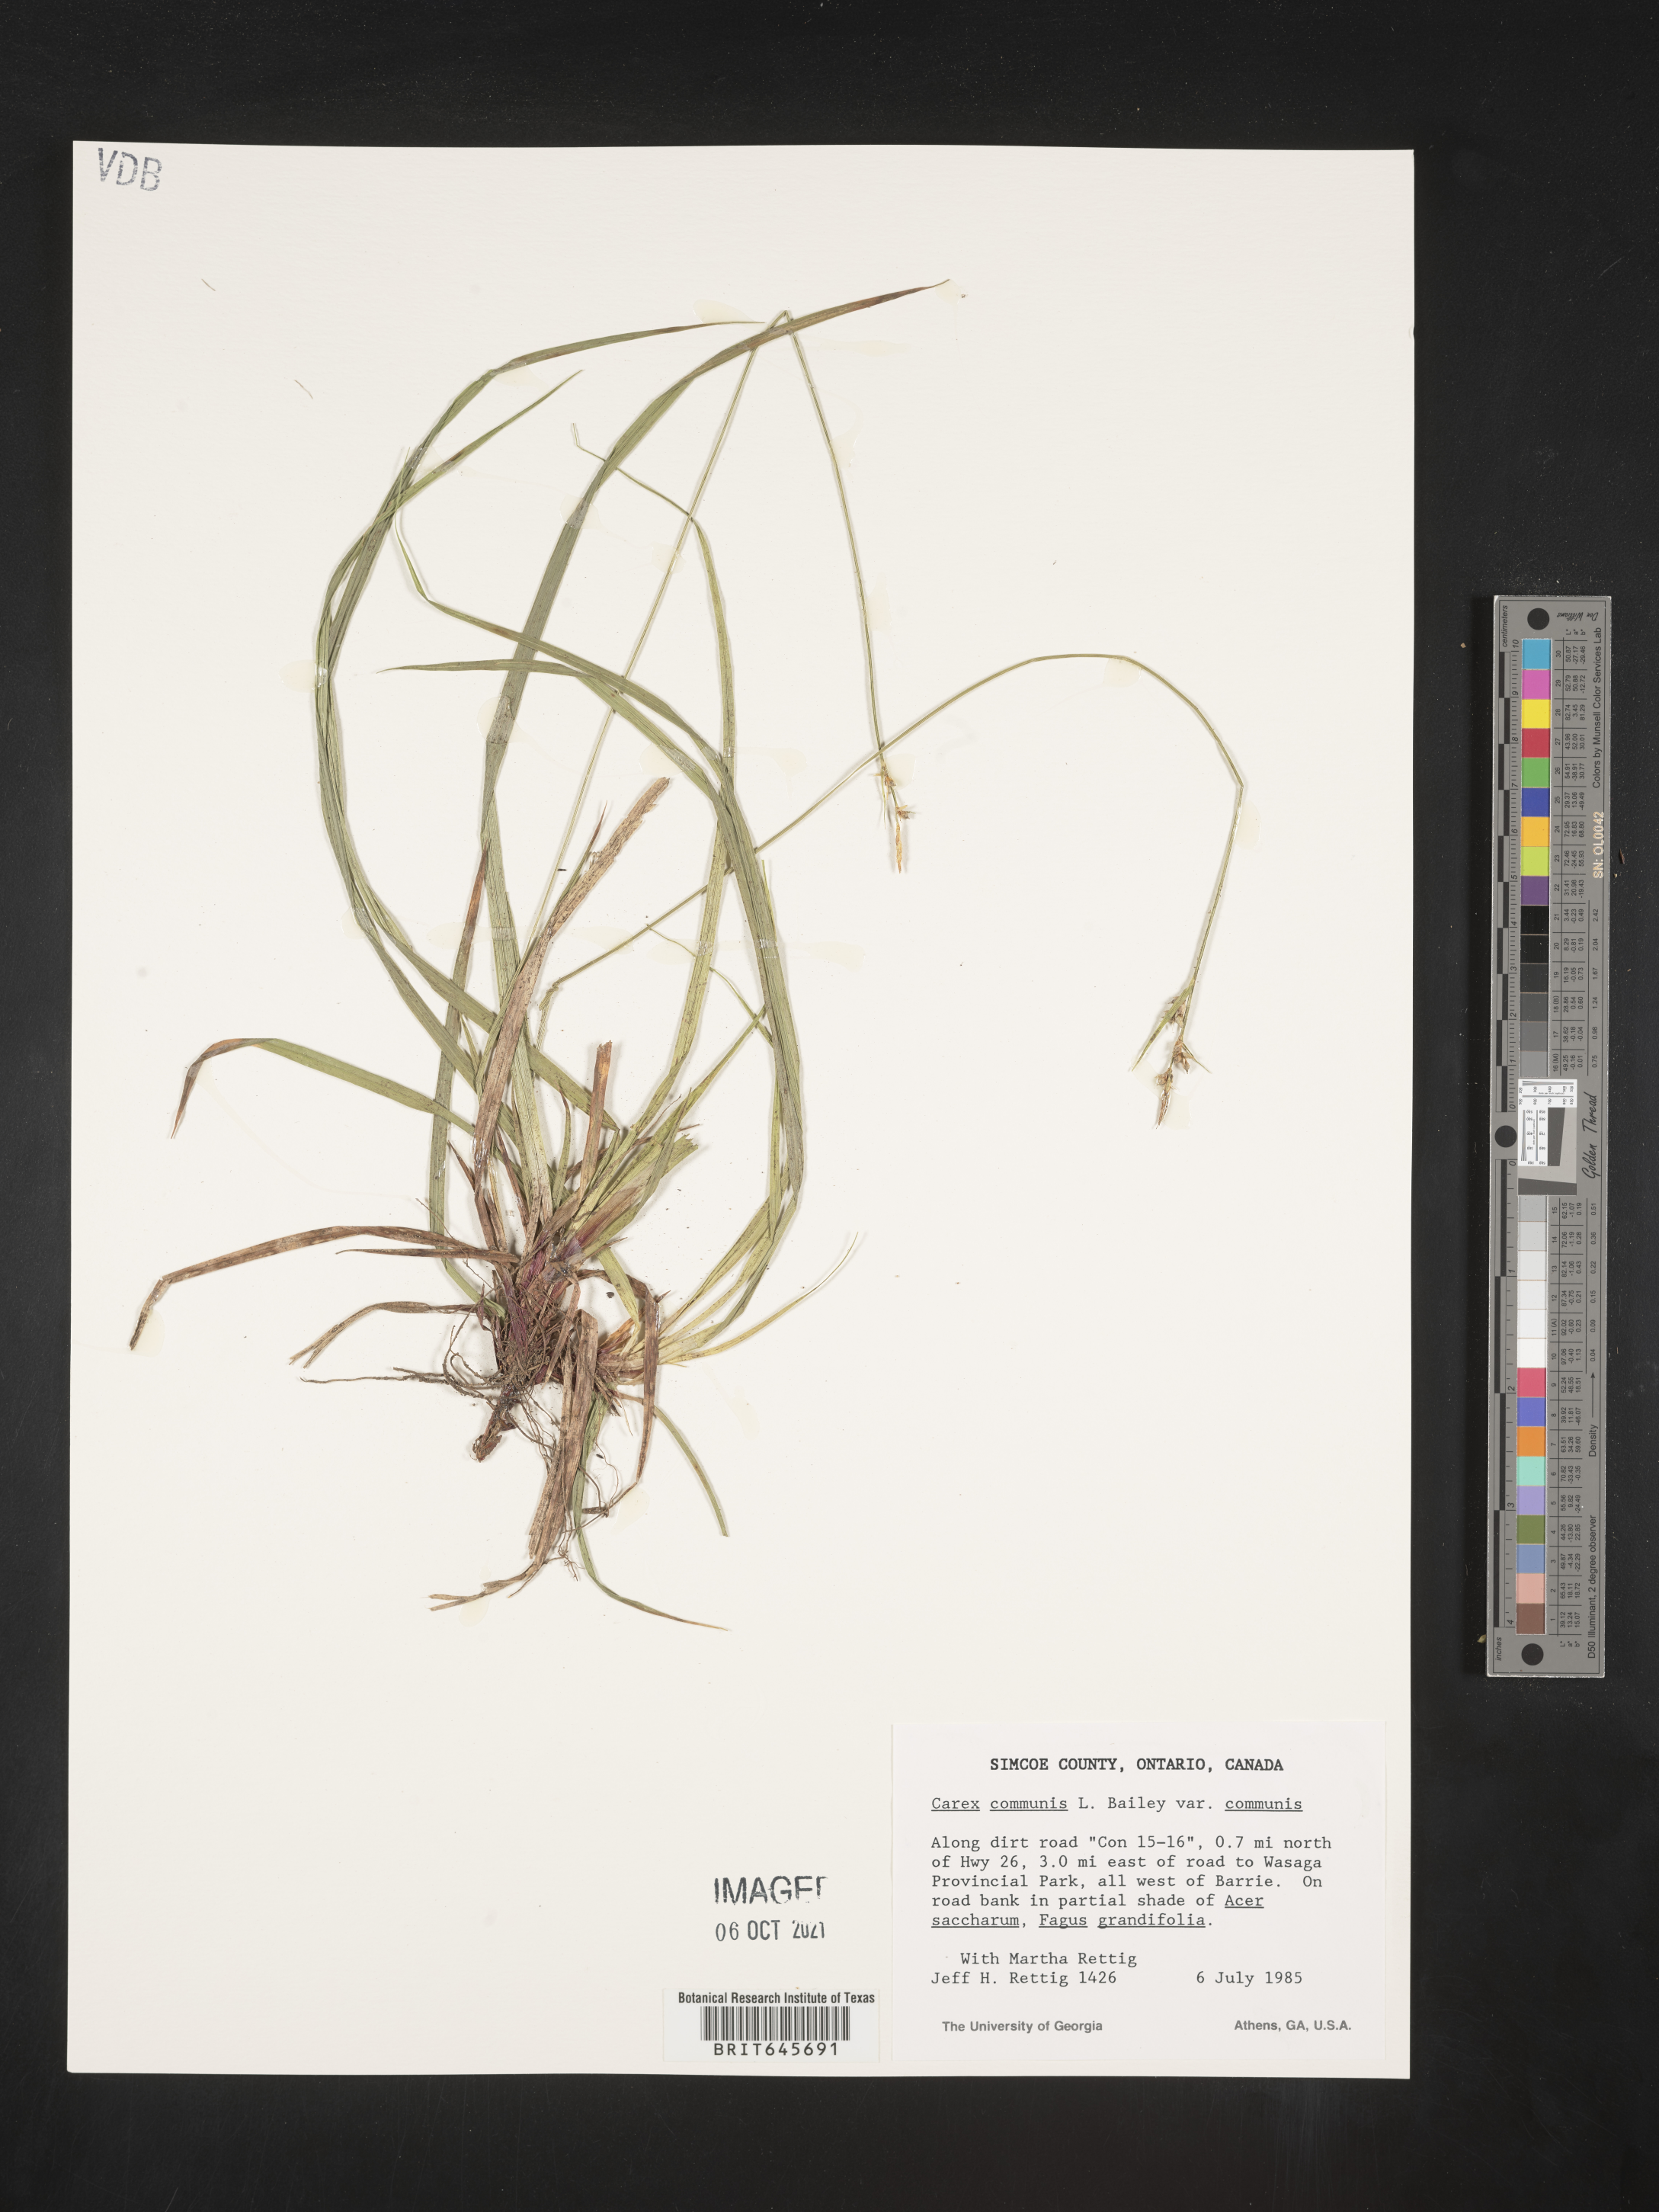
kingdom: Plantae
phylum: Tracheophyta
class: Liliopsida
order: Poales
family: Cyperaceae
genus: Carex
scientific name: Carex communis
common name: Colonial oak sedge
